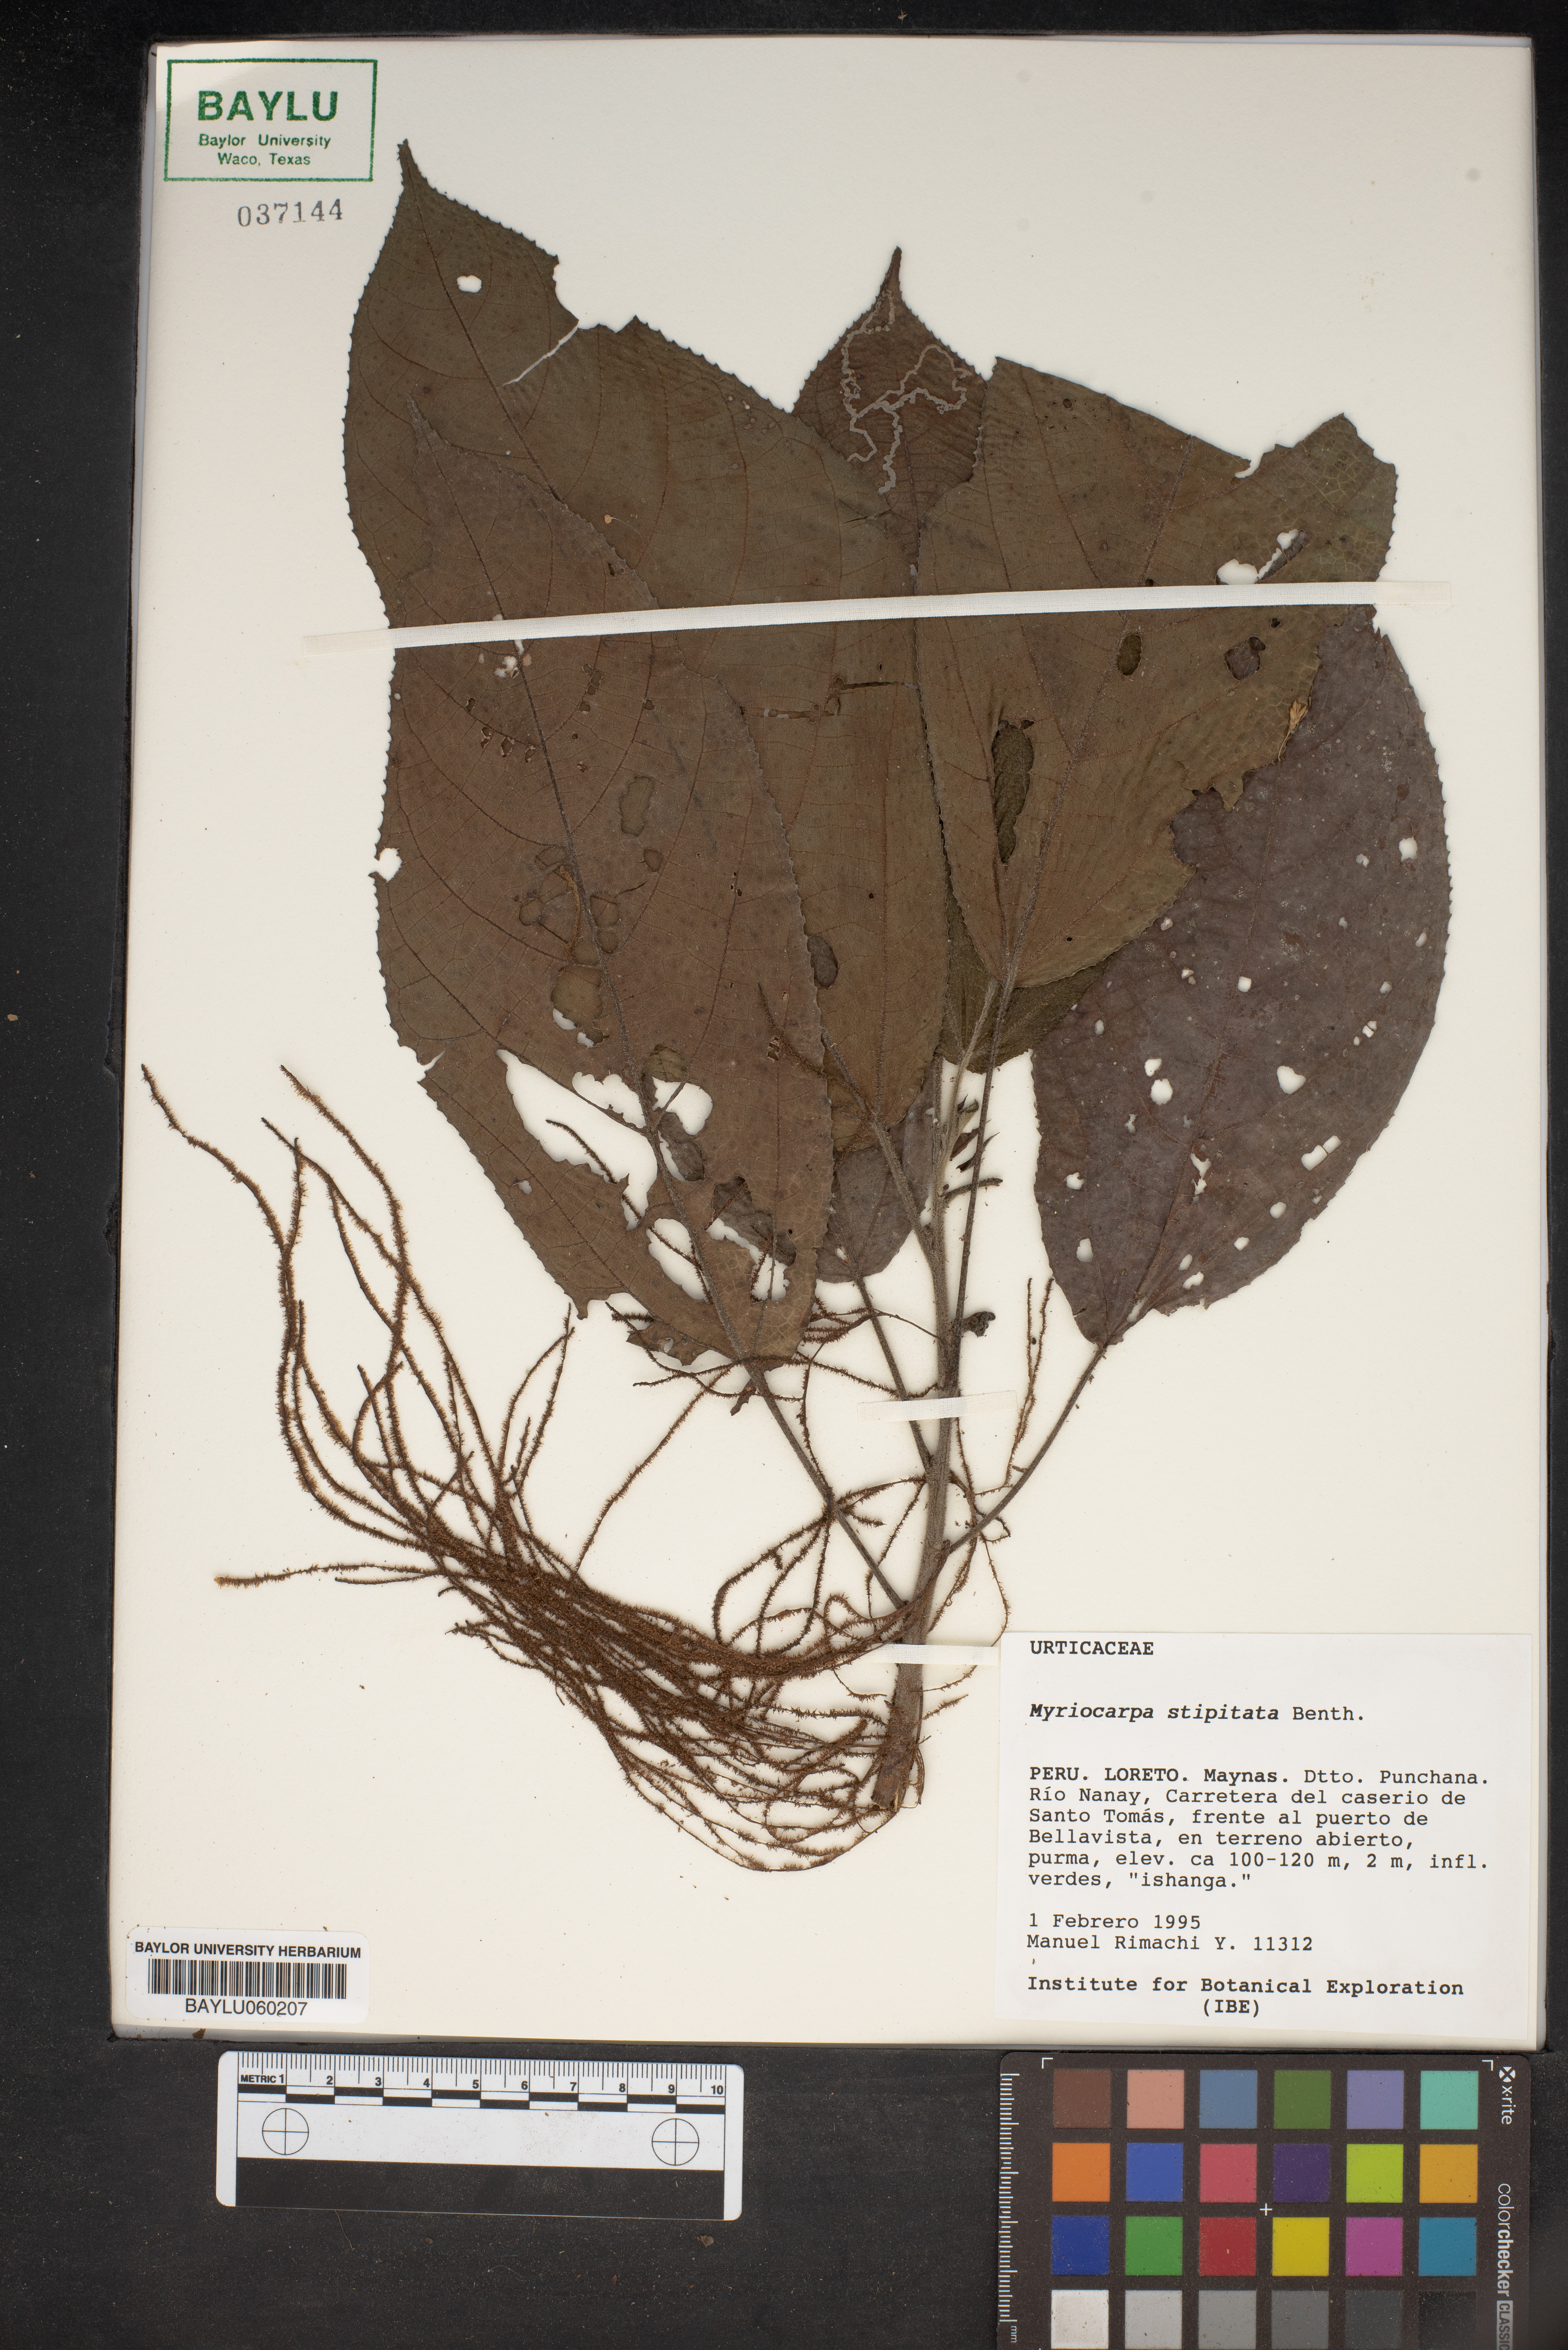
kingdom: Plantae
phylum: Tracheophyta
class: Magnoliopsida
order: Rosales
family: Urticaceae
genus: Myriocarpa
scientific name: Myriocarpa stipitata
